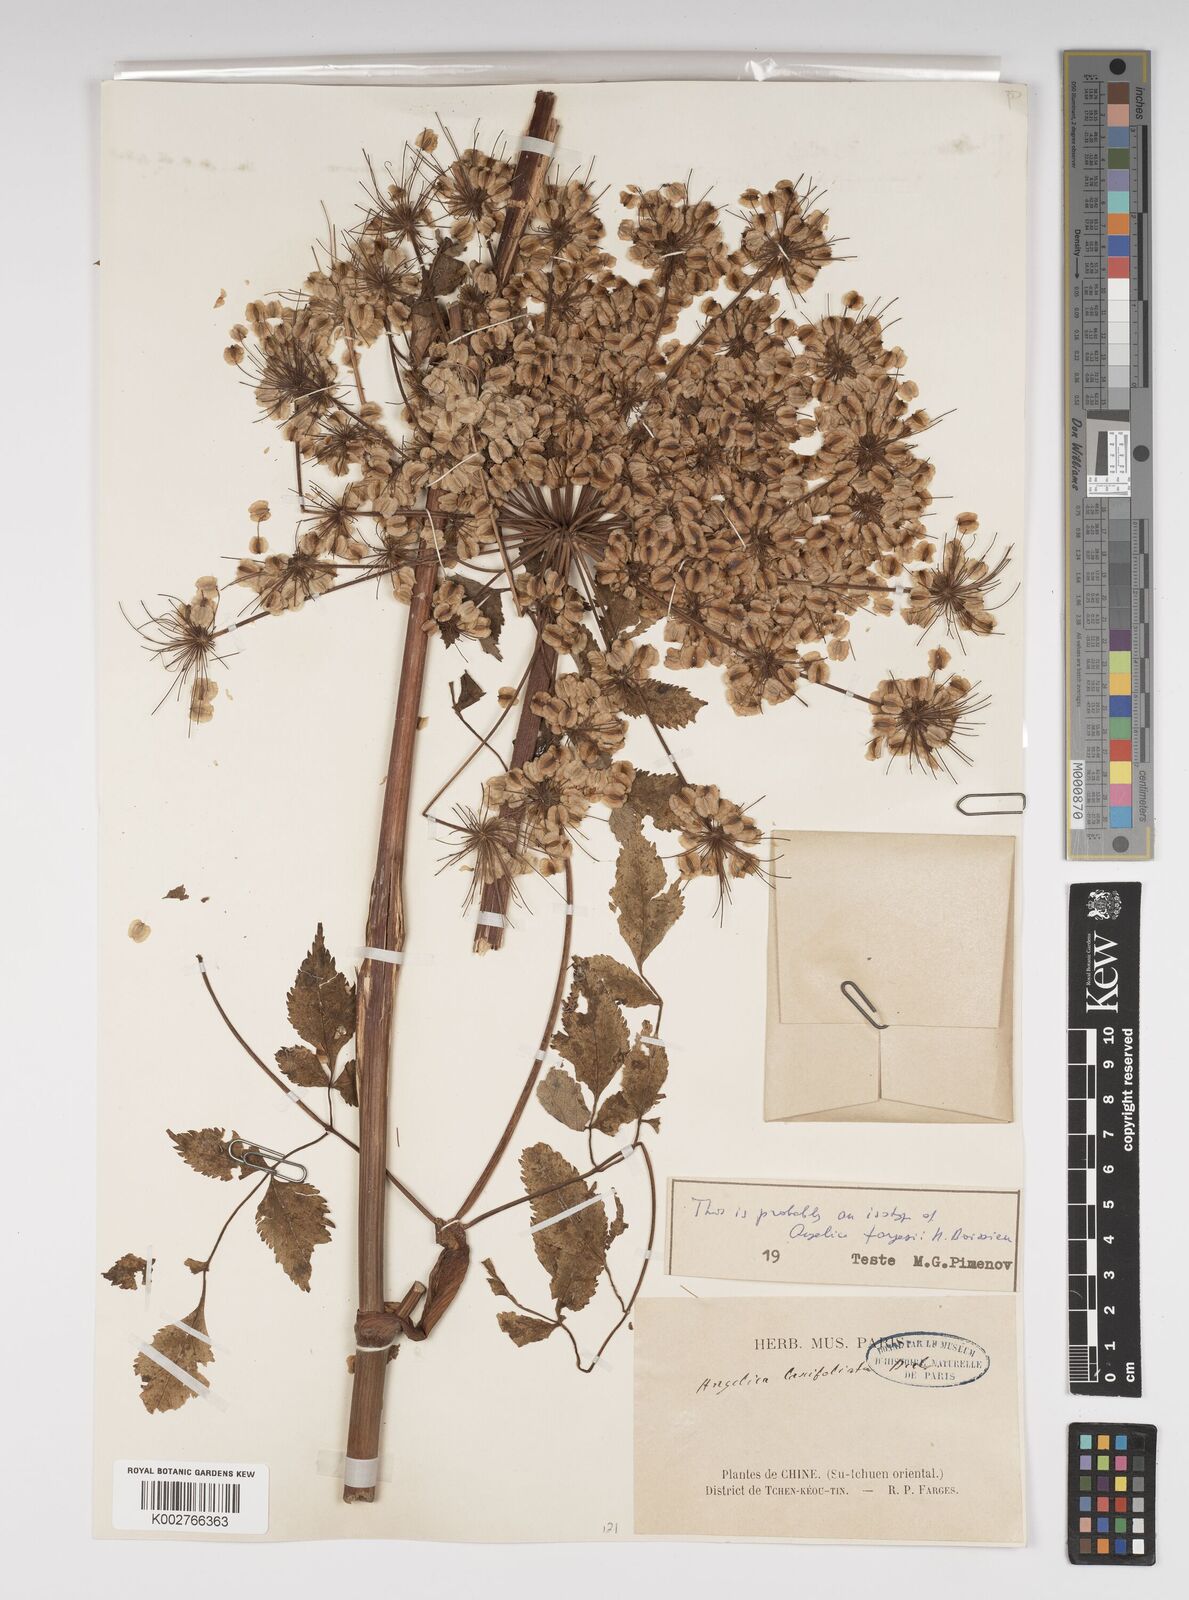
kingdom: Plantae
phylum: Tracheophyta
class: Magnoliopsida
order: Apiales
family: Apiaceae
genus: Angelica
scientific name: Angelica
